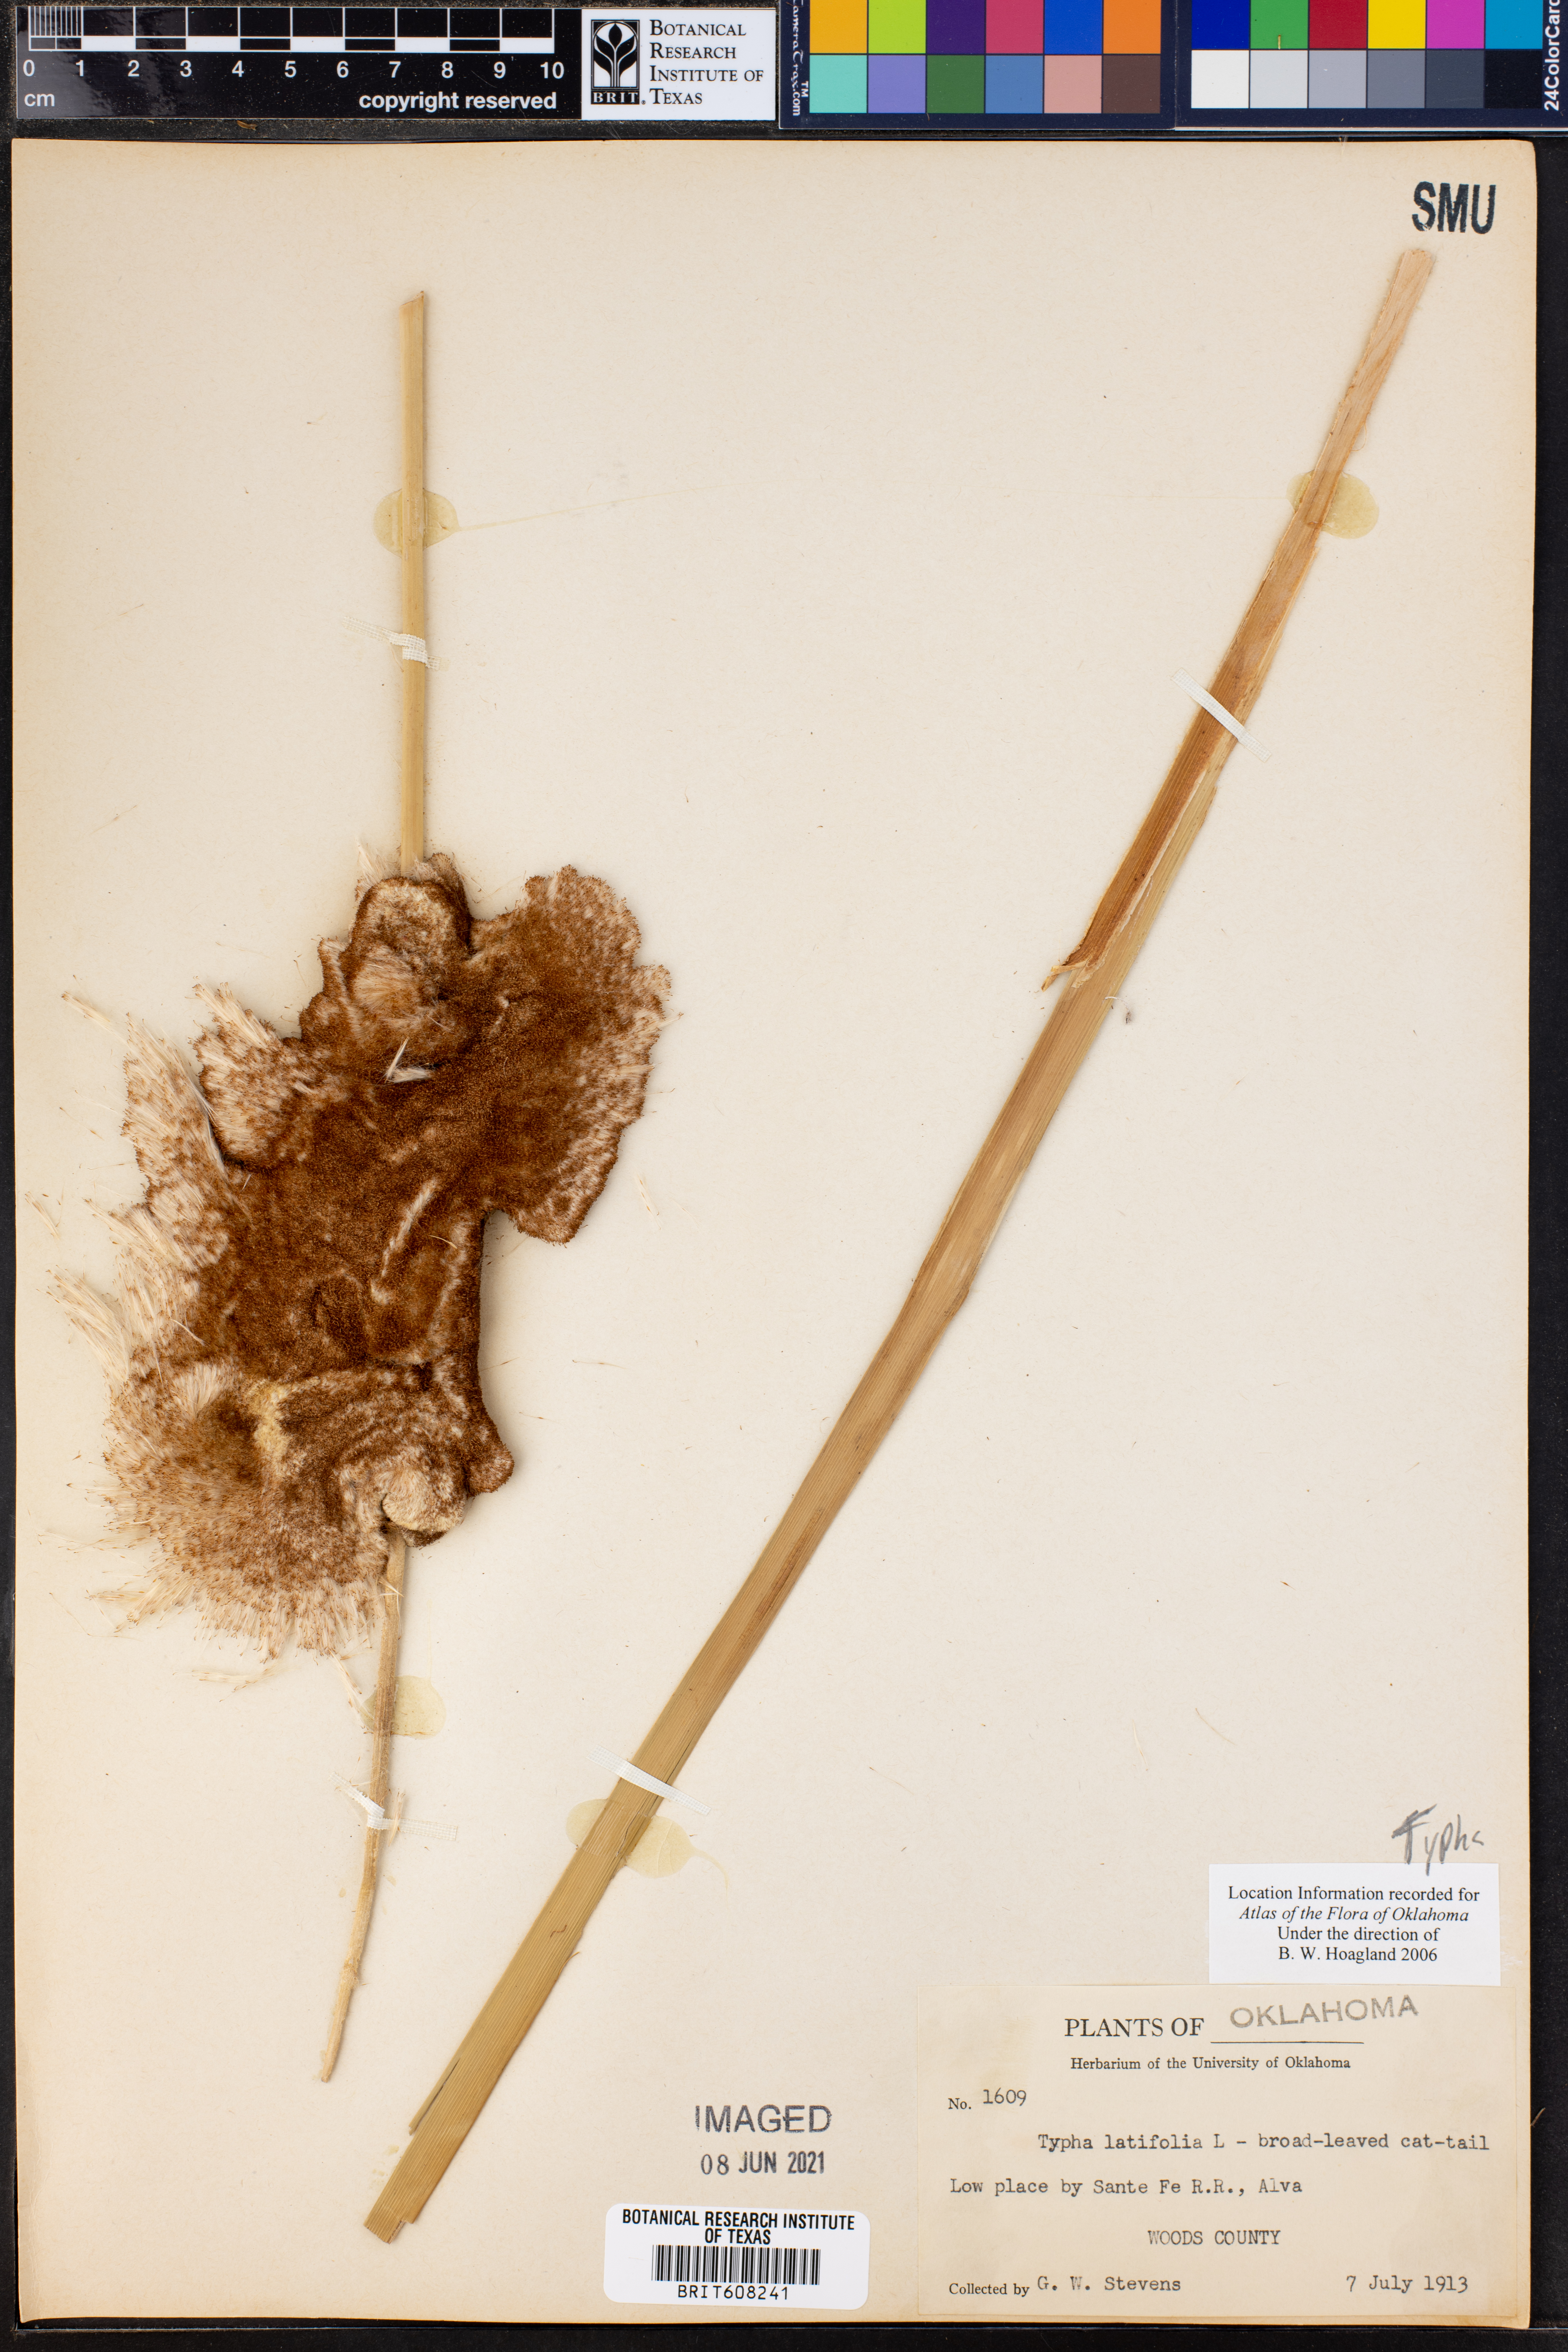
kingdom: Plantae
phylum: Tracheophyta
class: Liliopsida
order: Poales
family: Typhaceae
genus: Typha
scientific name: Typha latifolia
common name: Broadleaf cattail
